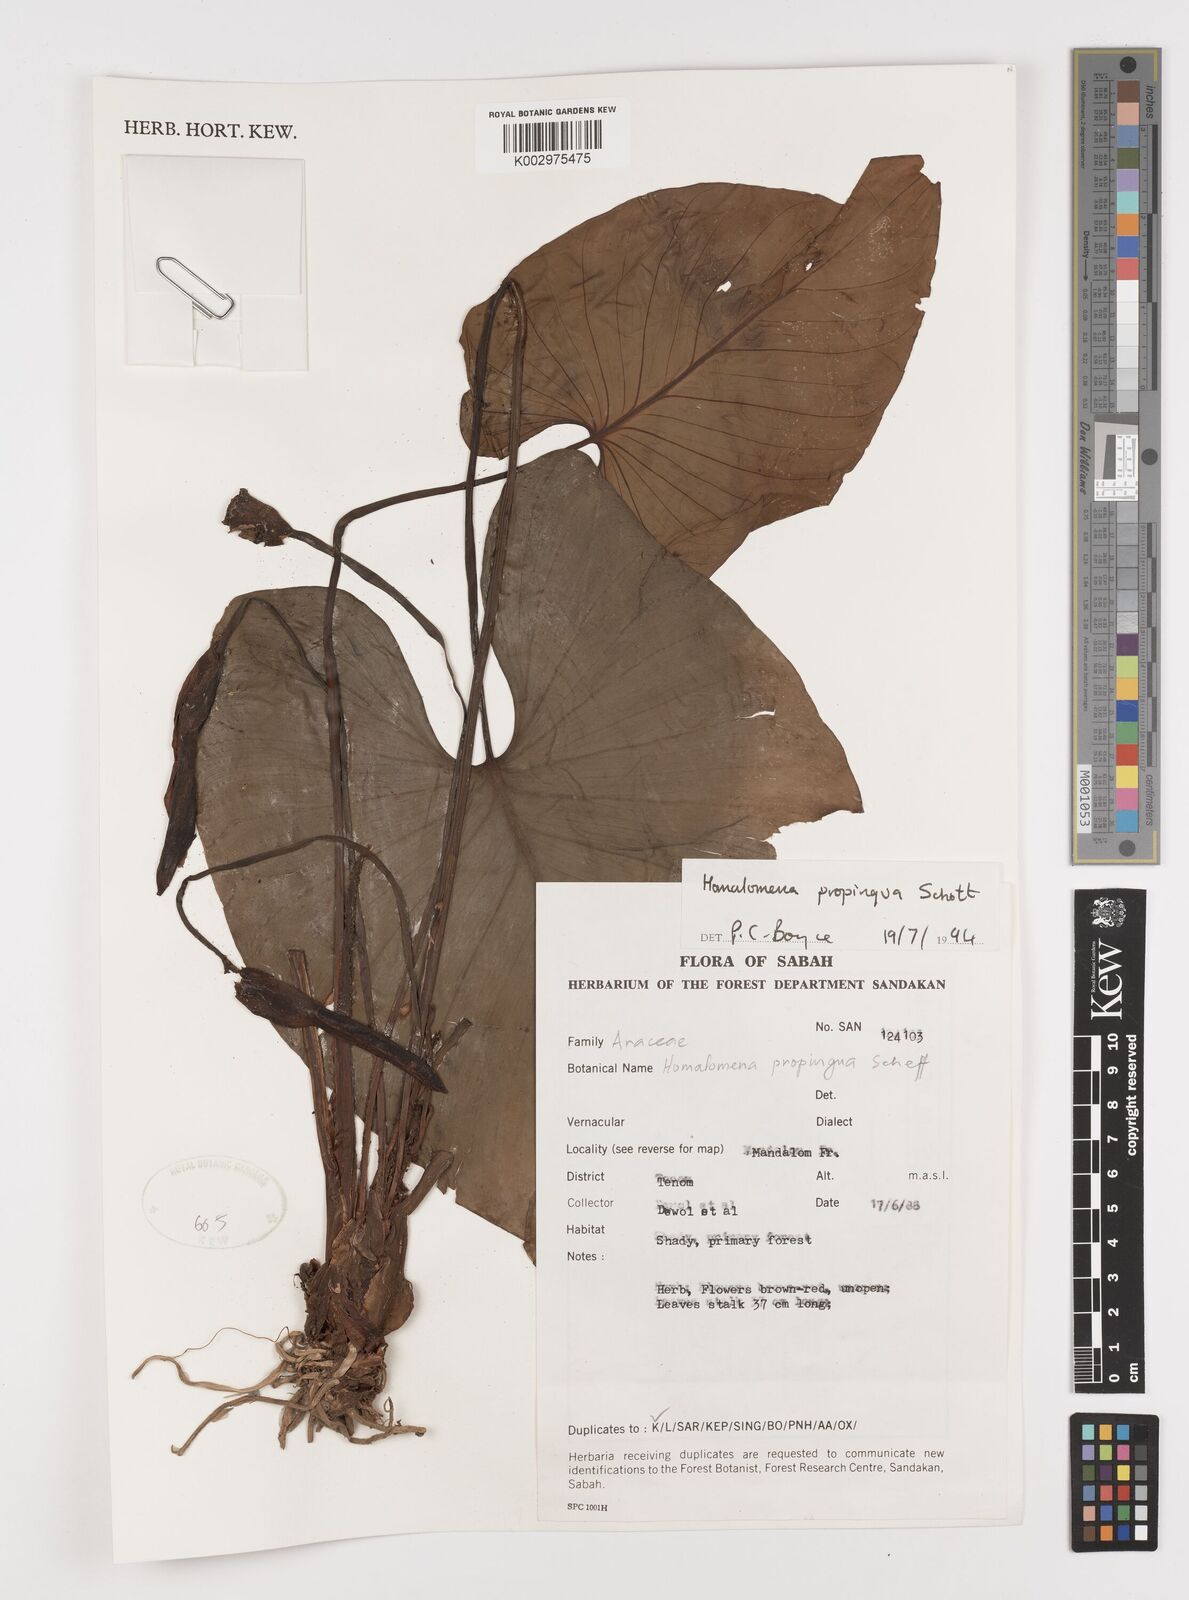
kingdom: Plantae
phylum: Tracheophyta
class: Liliopsida
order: Alismatales
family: Araceae
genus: Homalomena
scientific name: Homalomena humilis
